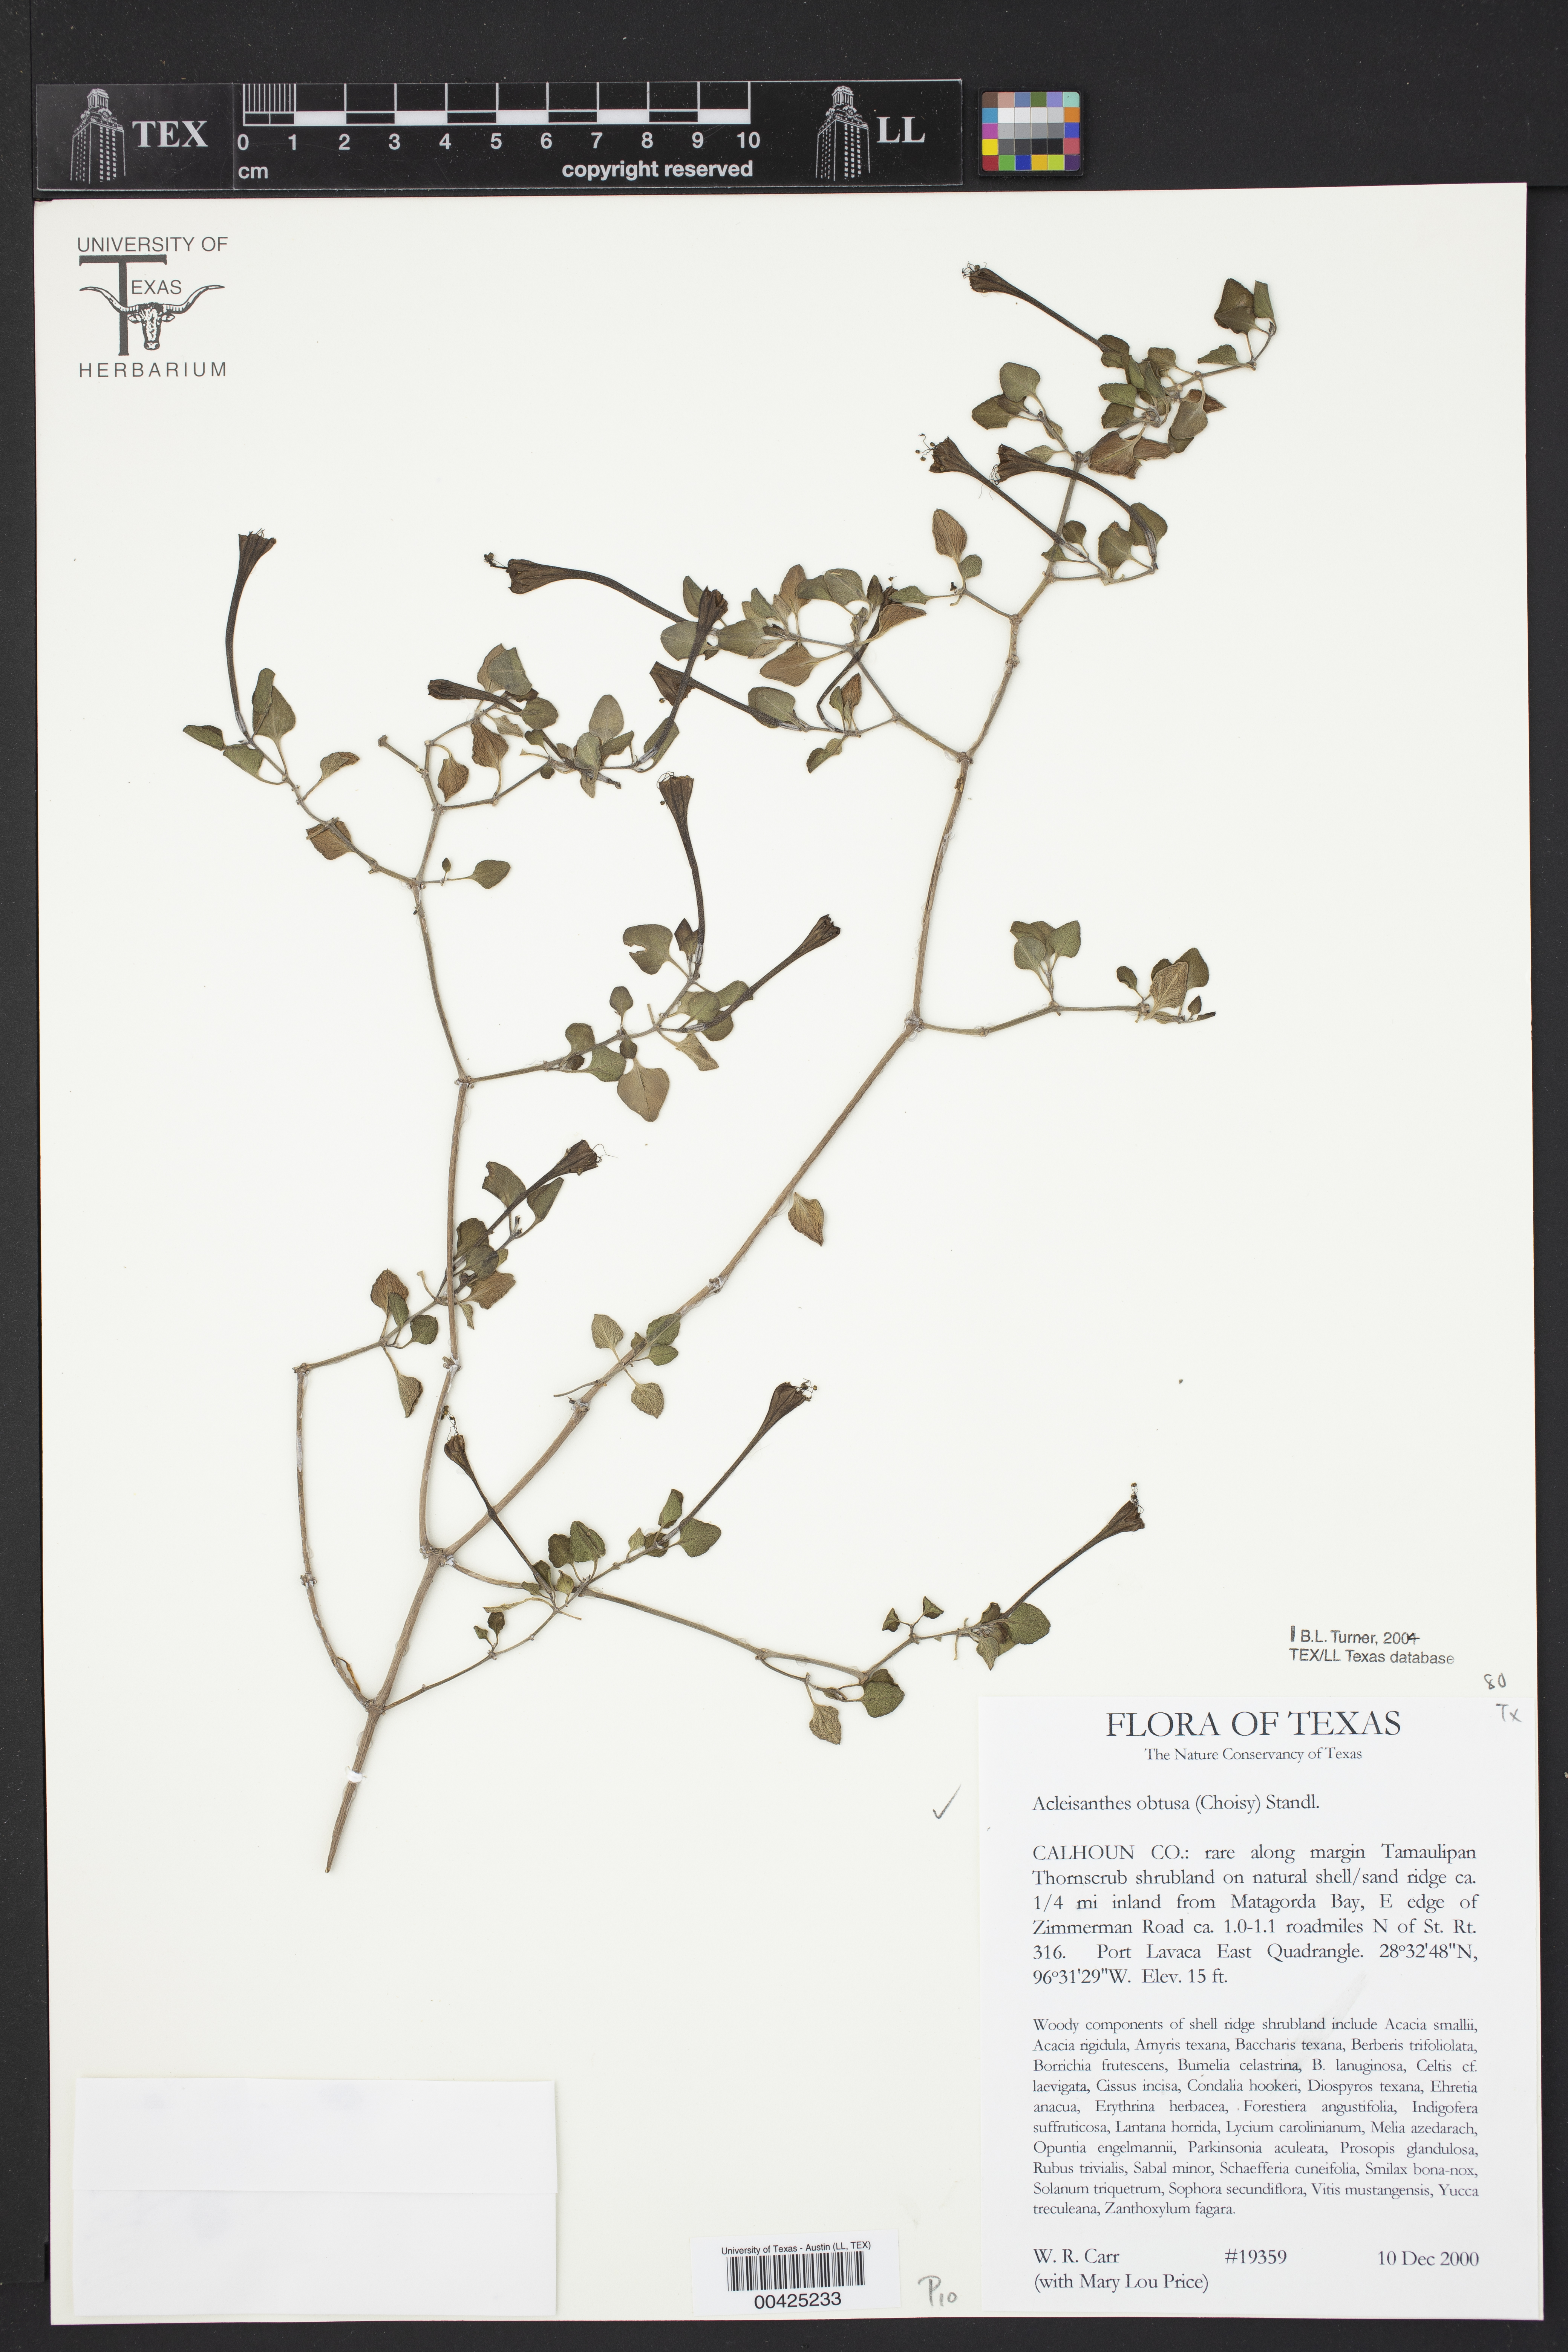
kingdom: Plantae
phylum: Tracheophyta
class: Magnoliopsida
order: Caryophyllales
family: Nyctaginaceae
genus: Acleisanthes
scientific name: Acleisanthes obtusa
